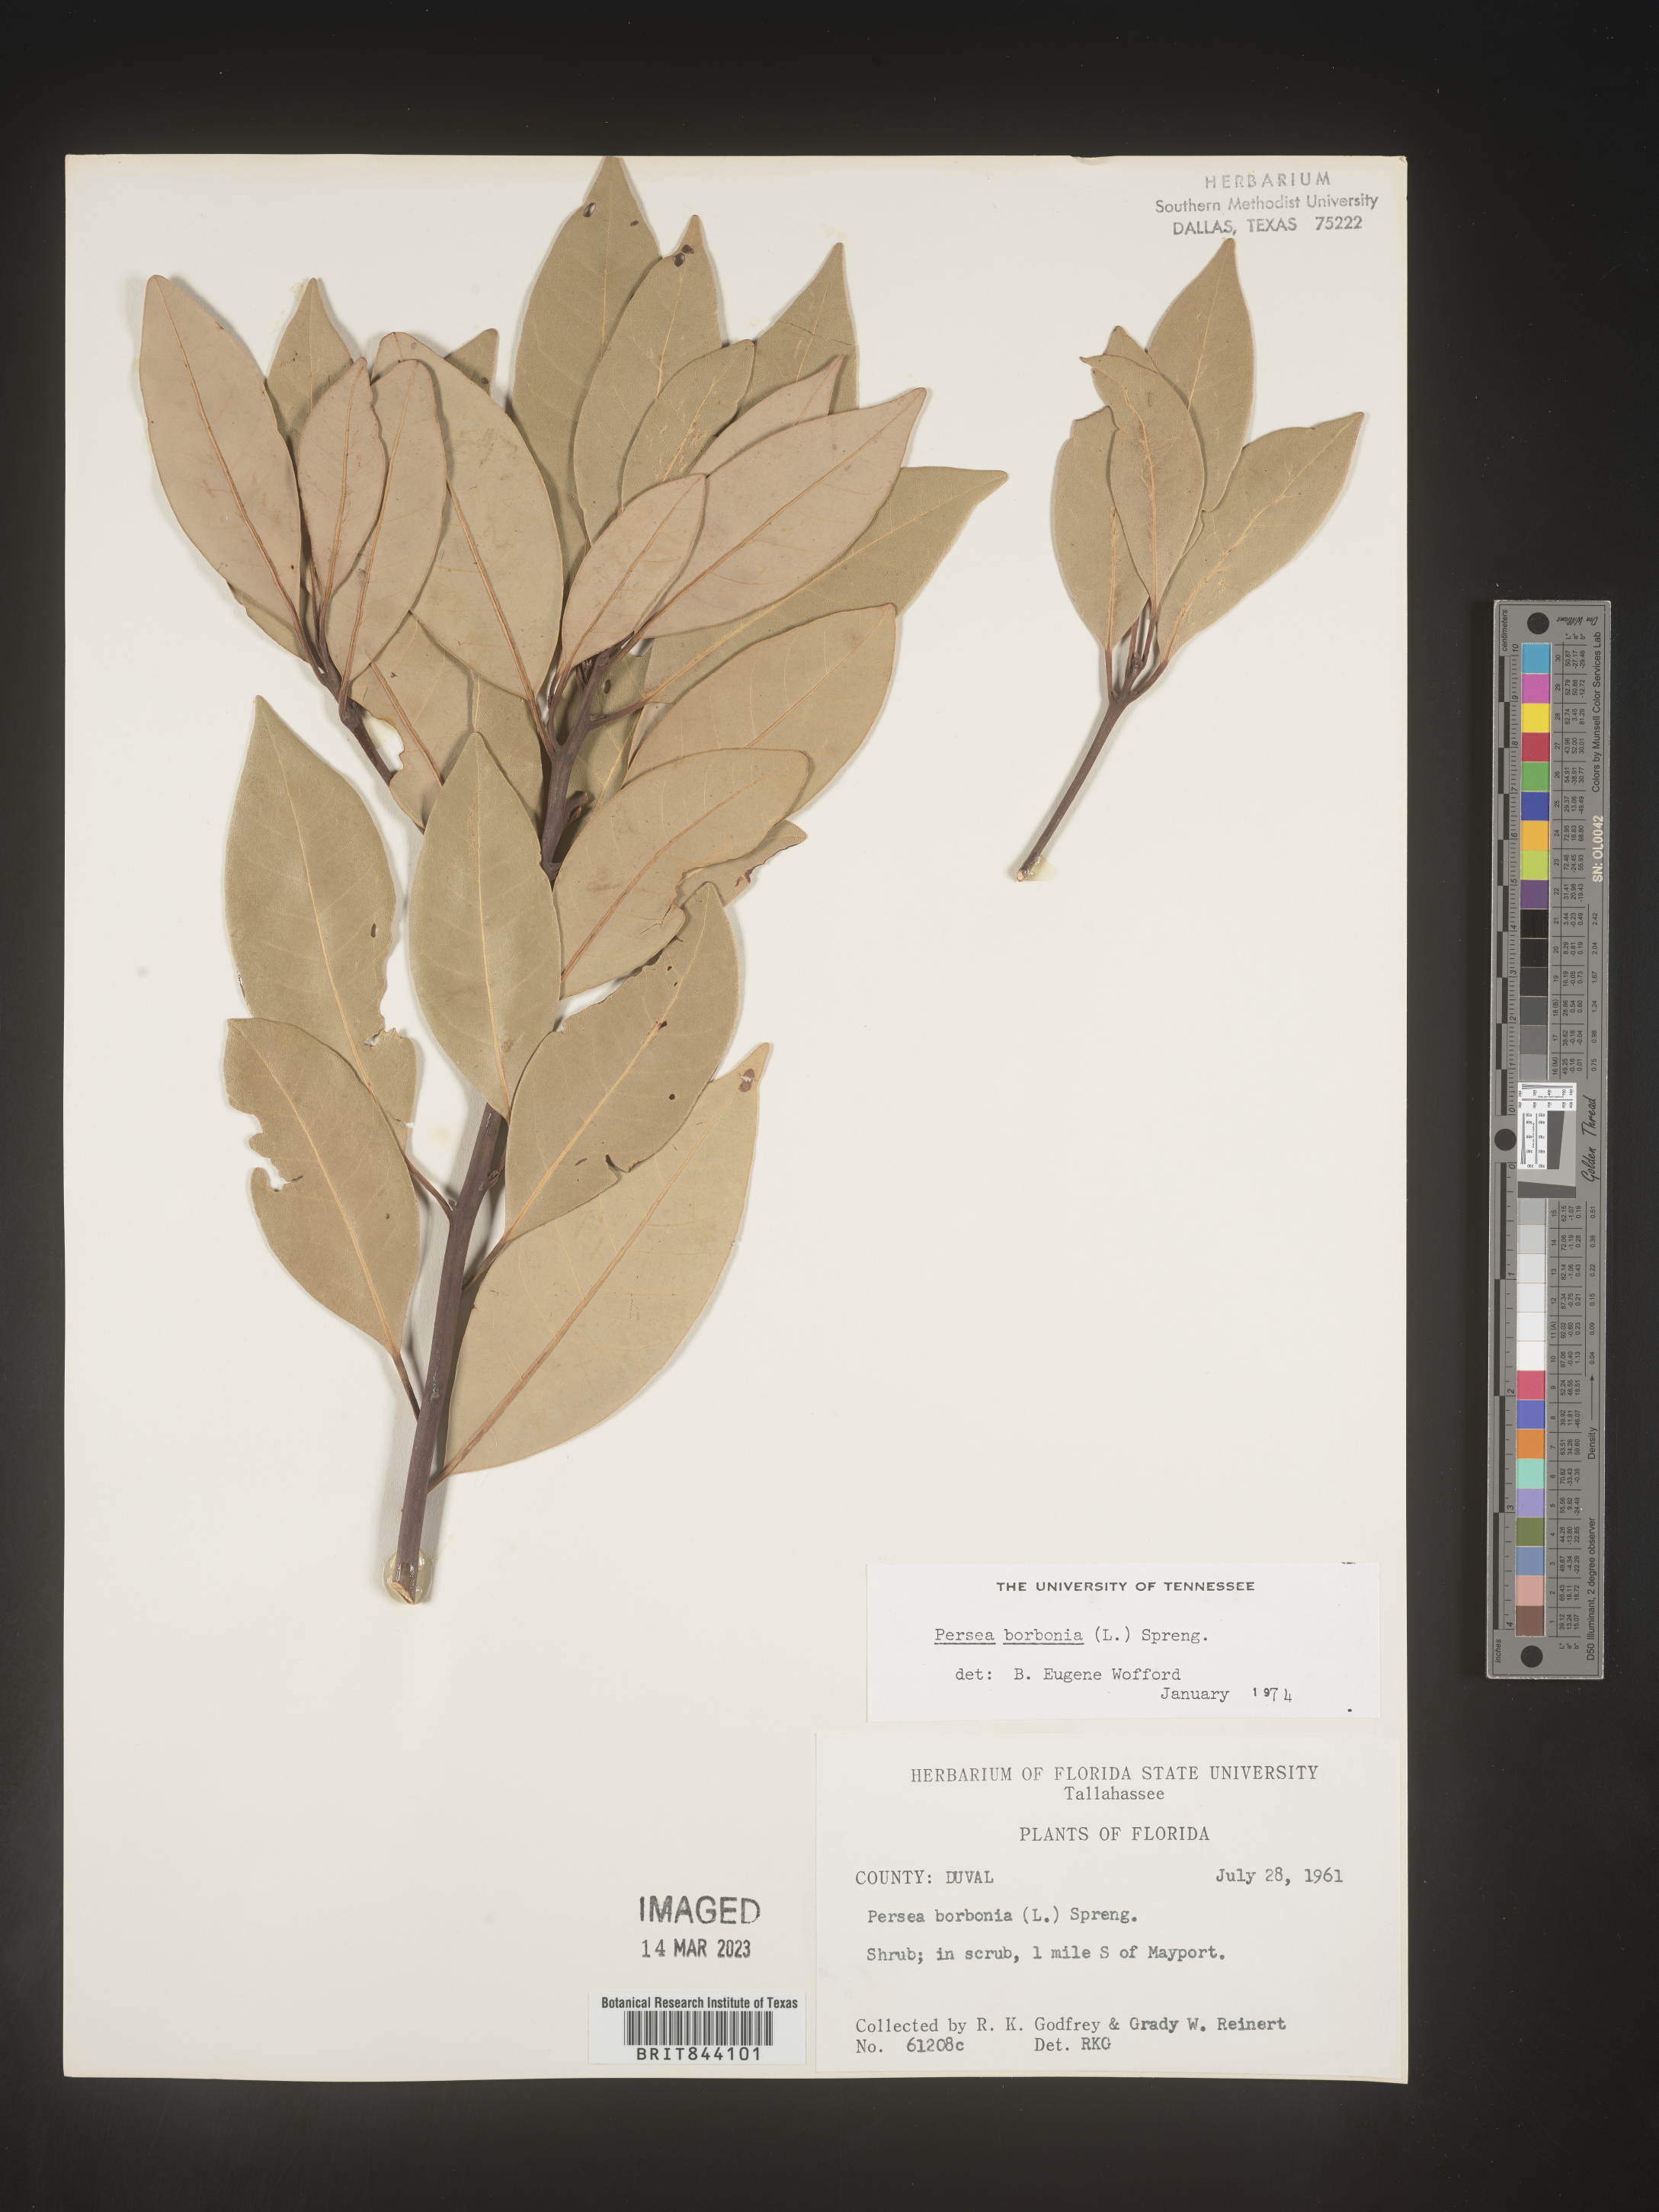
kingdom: Plantae
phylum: Tracheophyta
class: Magnoliopsida
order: Laurales
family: Lauraceae
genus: Persea
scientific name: Persea borbonia
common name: Redbay
